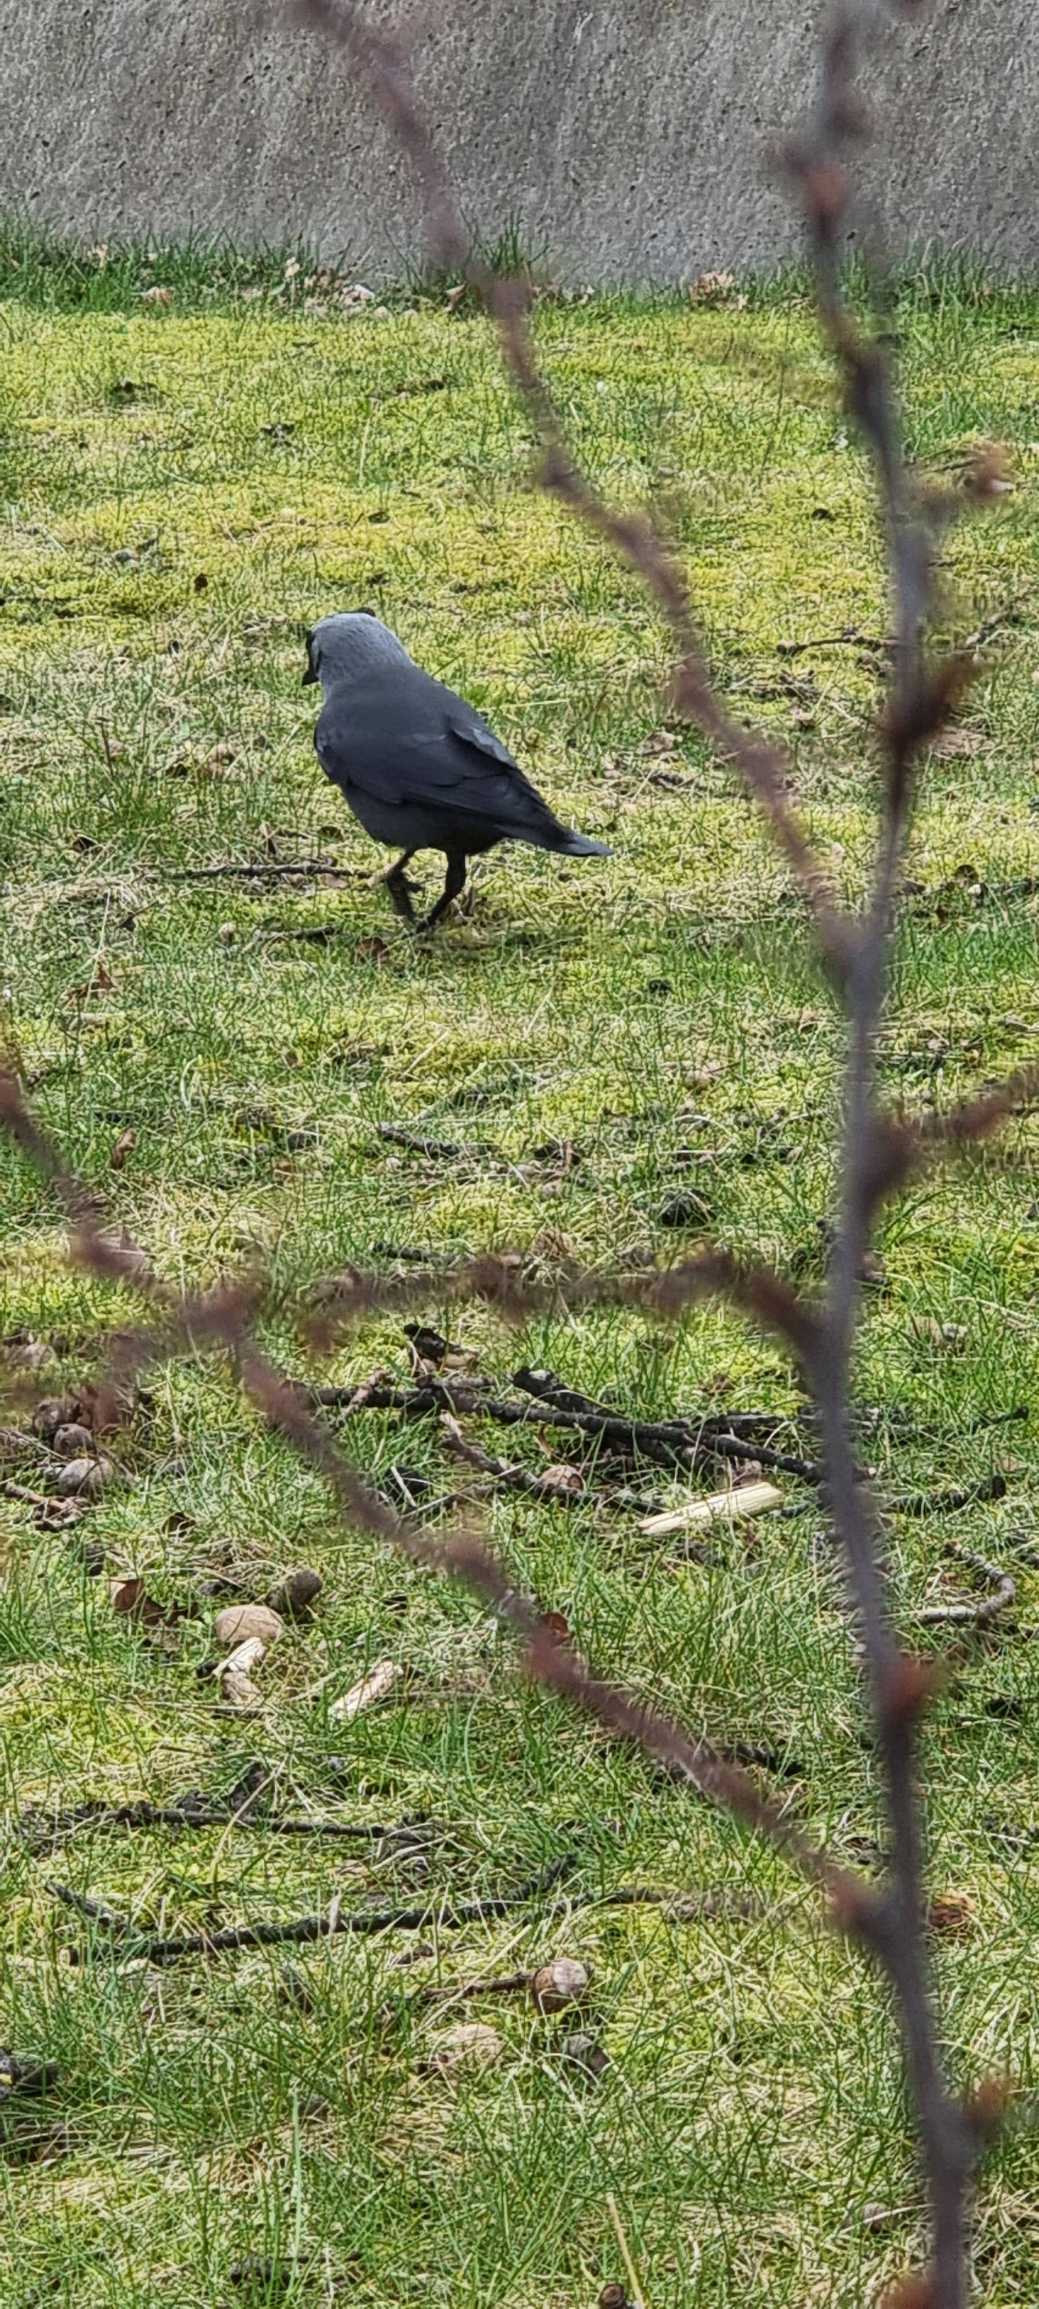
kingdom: Animalia
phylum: Chordata
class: Aves
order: Passeriformes
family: Corvidae
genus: Coloeus
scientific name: Coloeus monedula
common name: Allike
